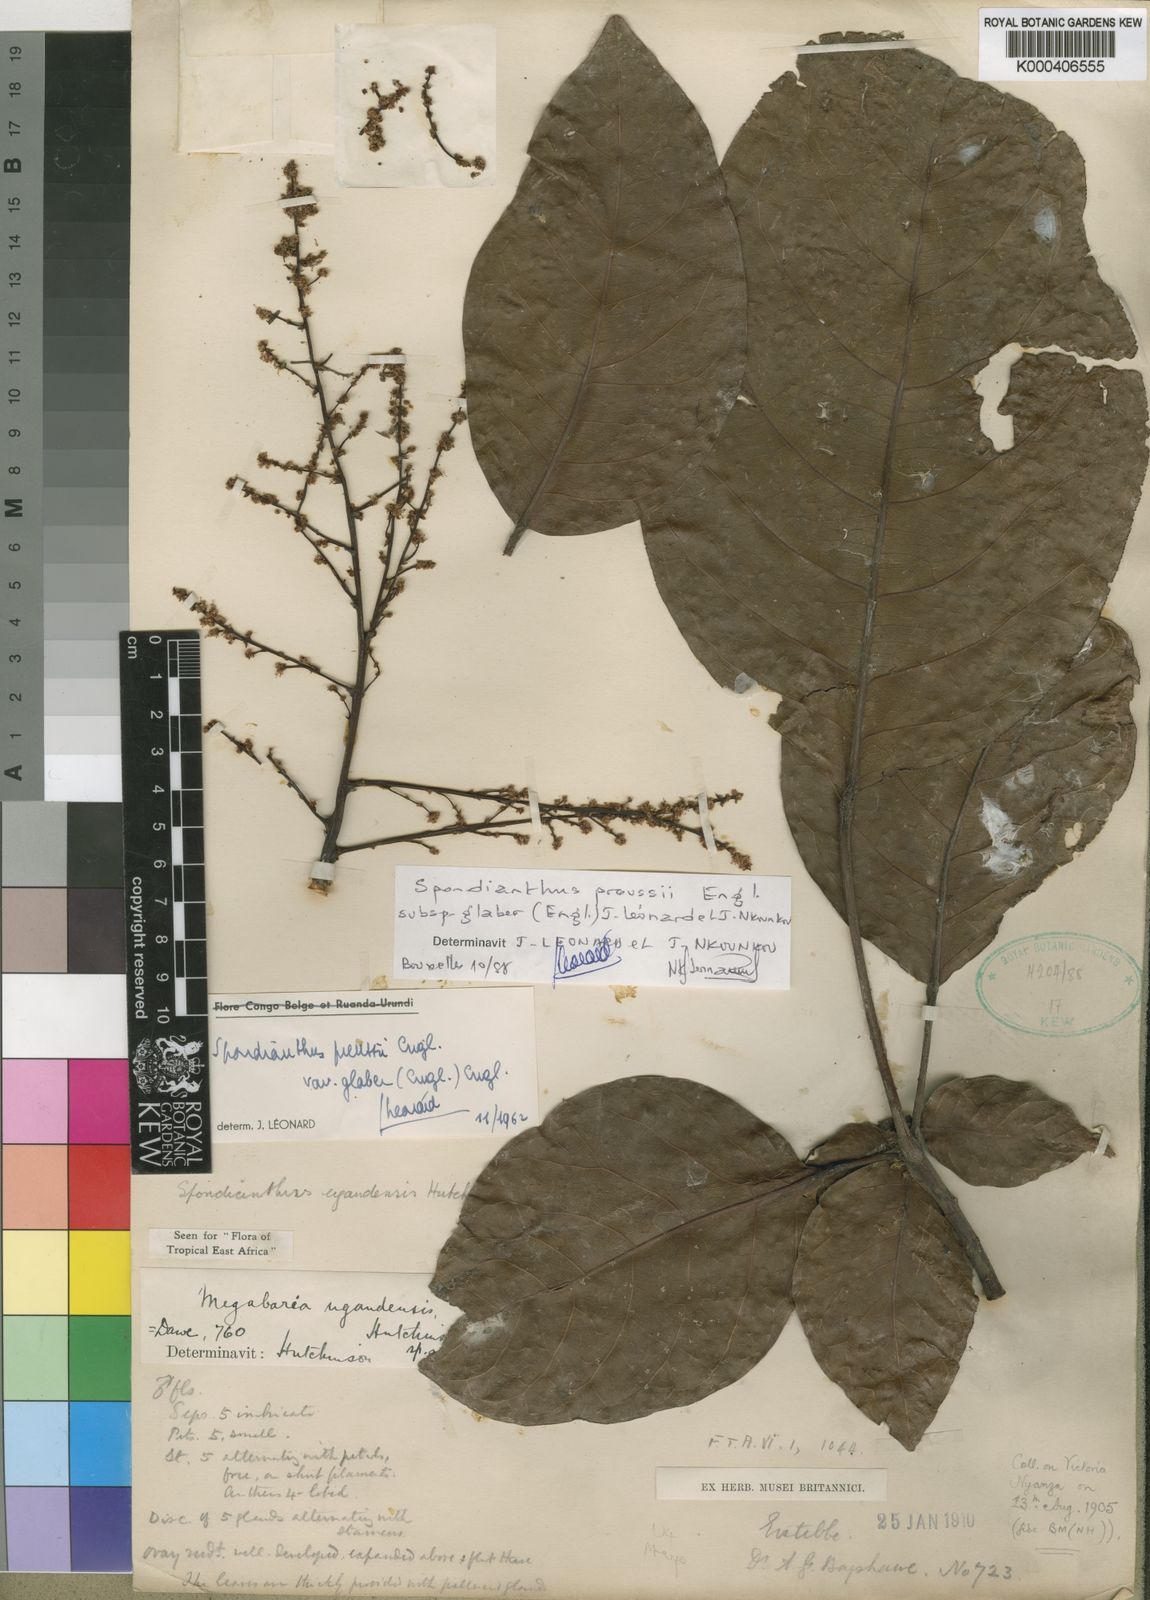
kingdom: Plantae
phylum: Tracheophyta
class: Magnoliopsida
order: Malpighiales
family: Phyllanthaceae
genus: Spondianthus
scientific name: Spondianthus preussii
